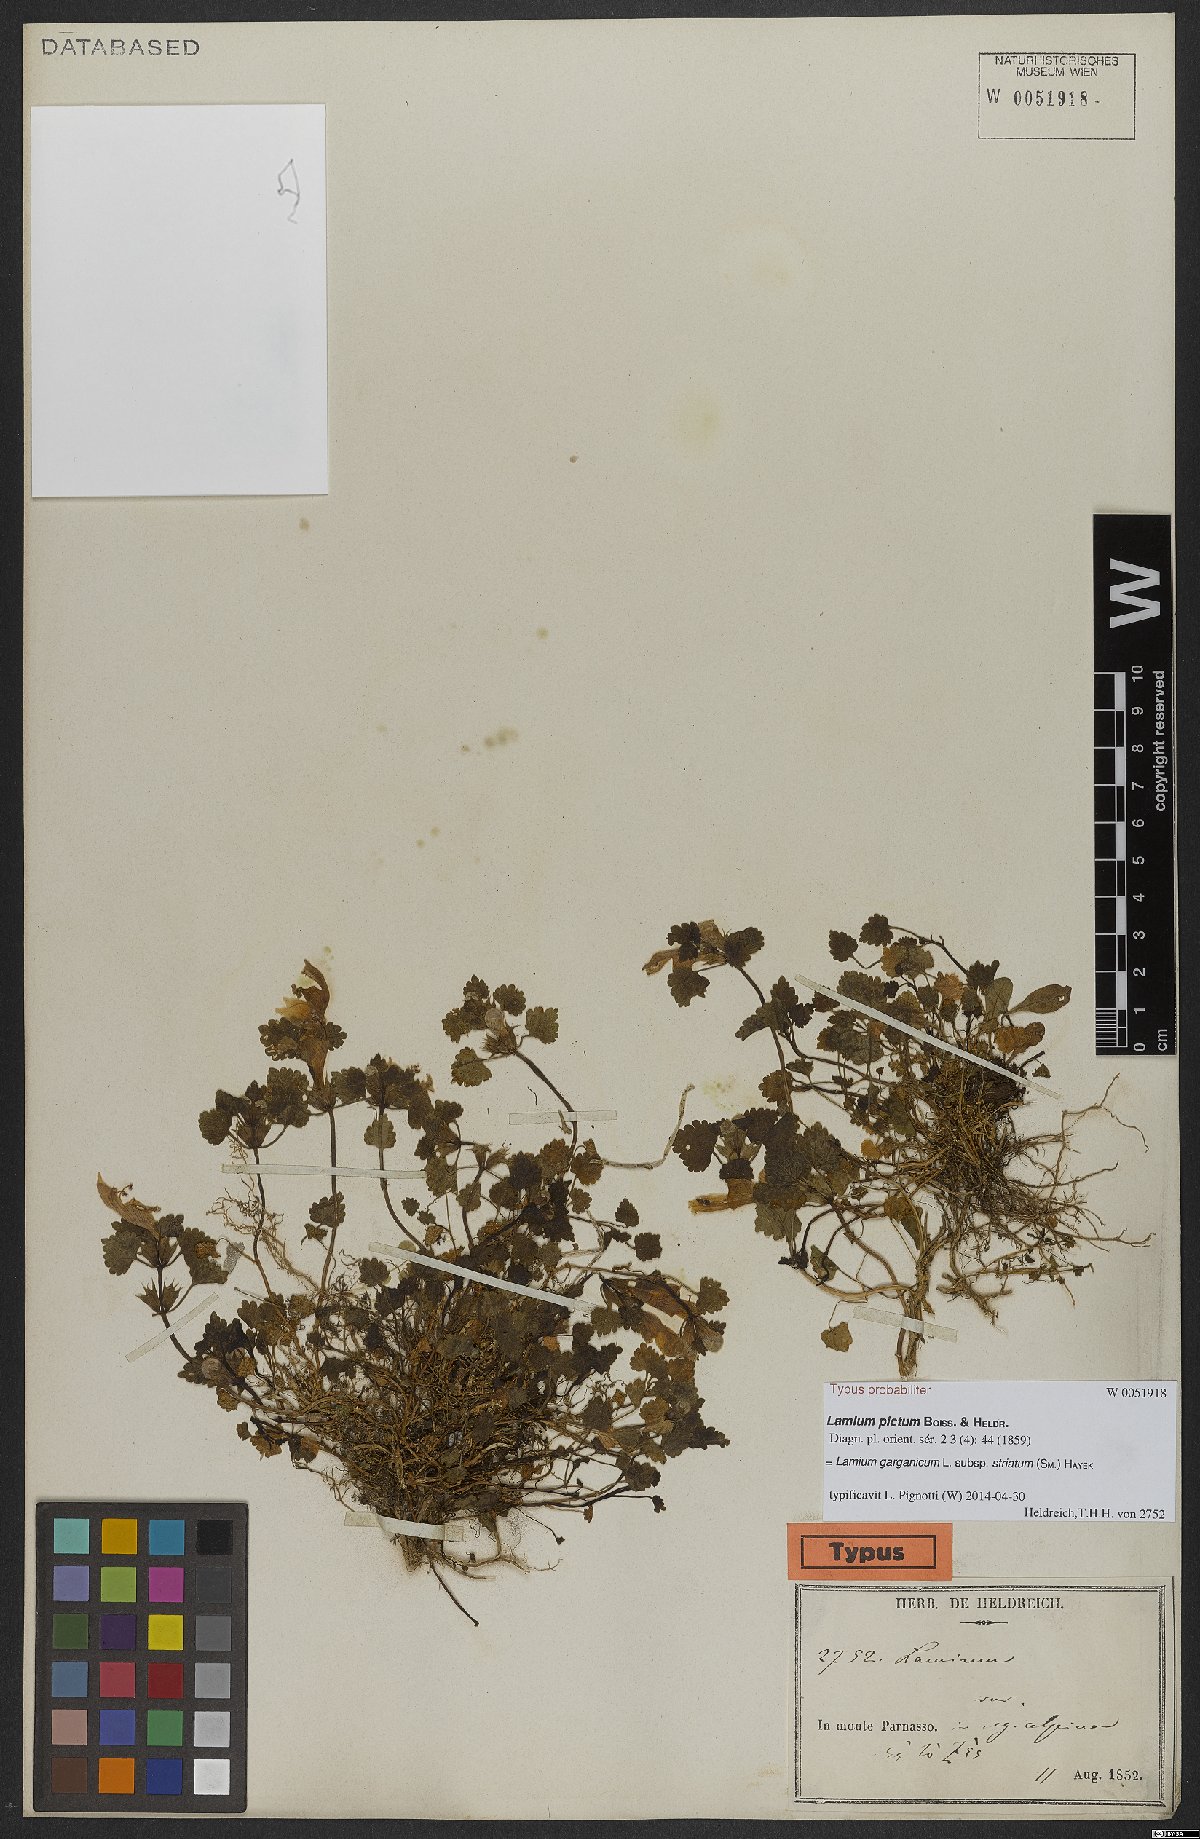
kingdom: Plantae
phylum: Tracheophyta
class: Magnoliopsida
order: Lamiales
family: Lamiaceae
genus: Lamium
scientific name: Lamium garganicum
